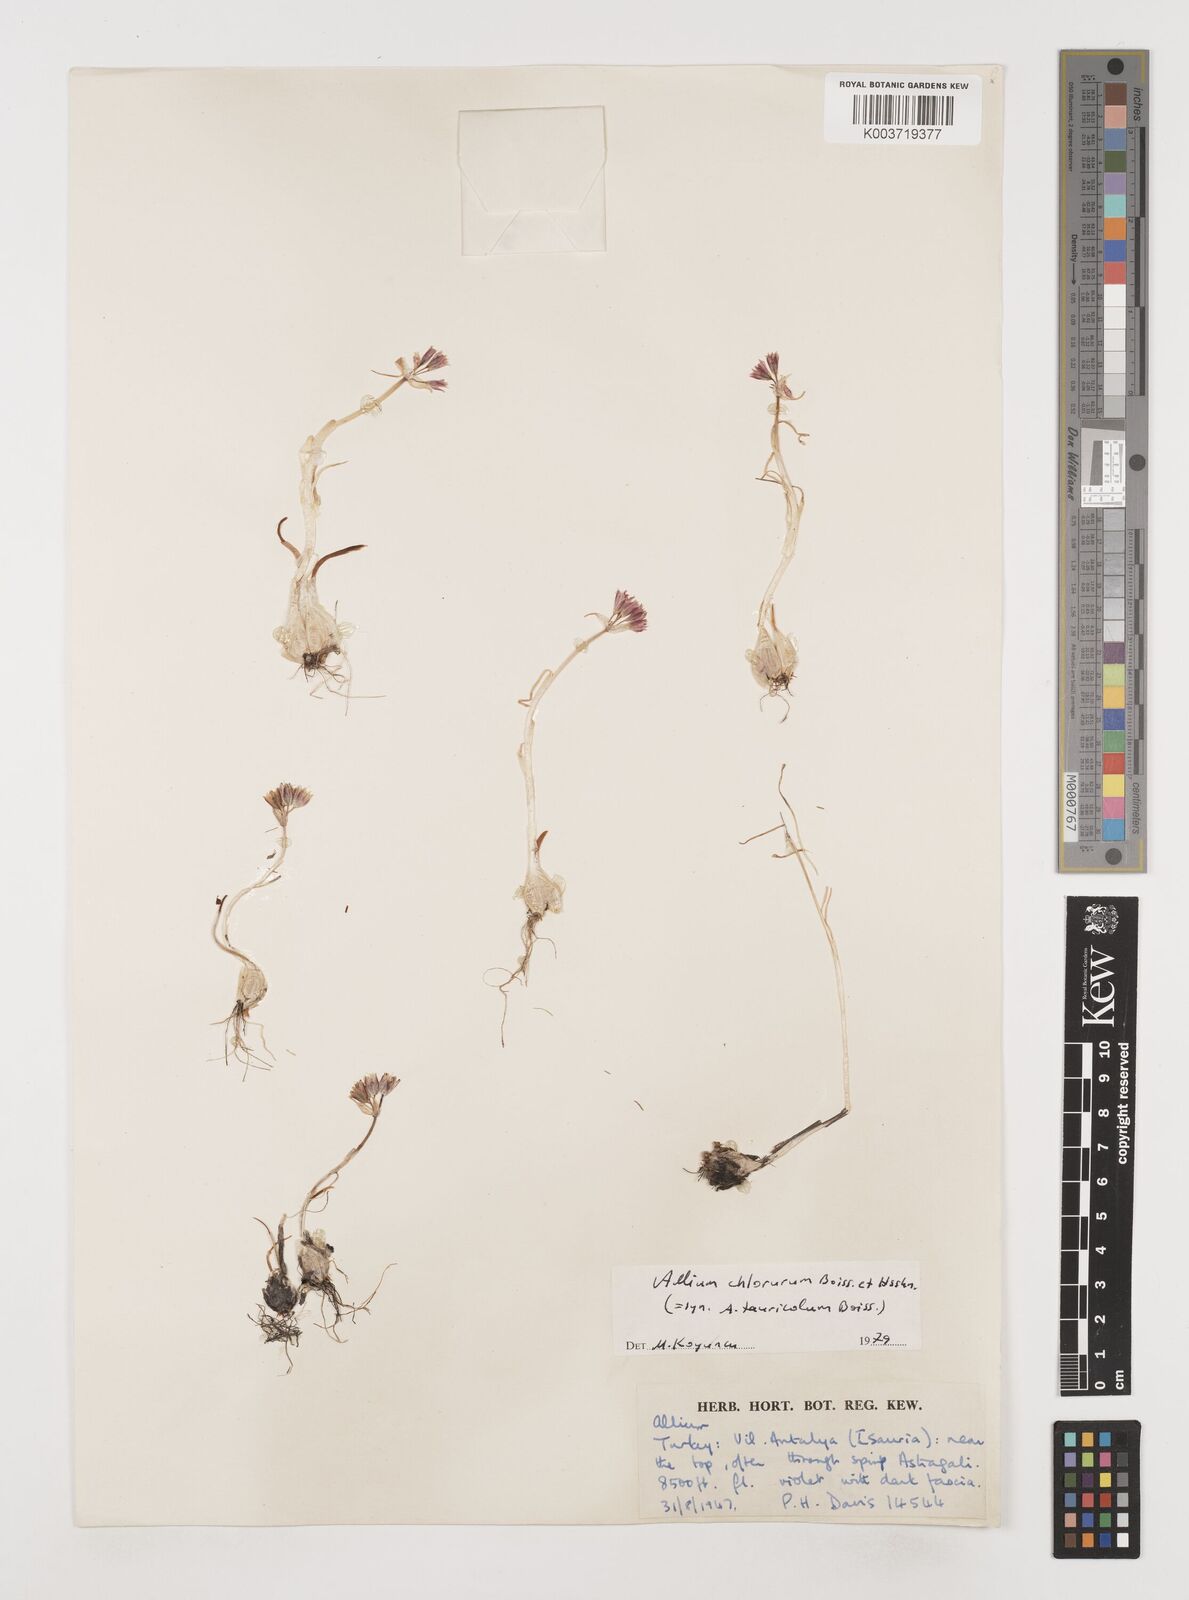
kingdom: Plantae
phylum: Tracheophyta
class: Liliopsida
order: Asparagales
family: Amaryllidaceae
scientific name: Amaryllidaceae
